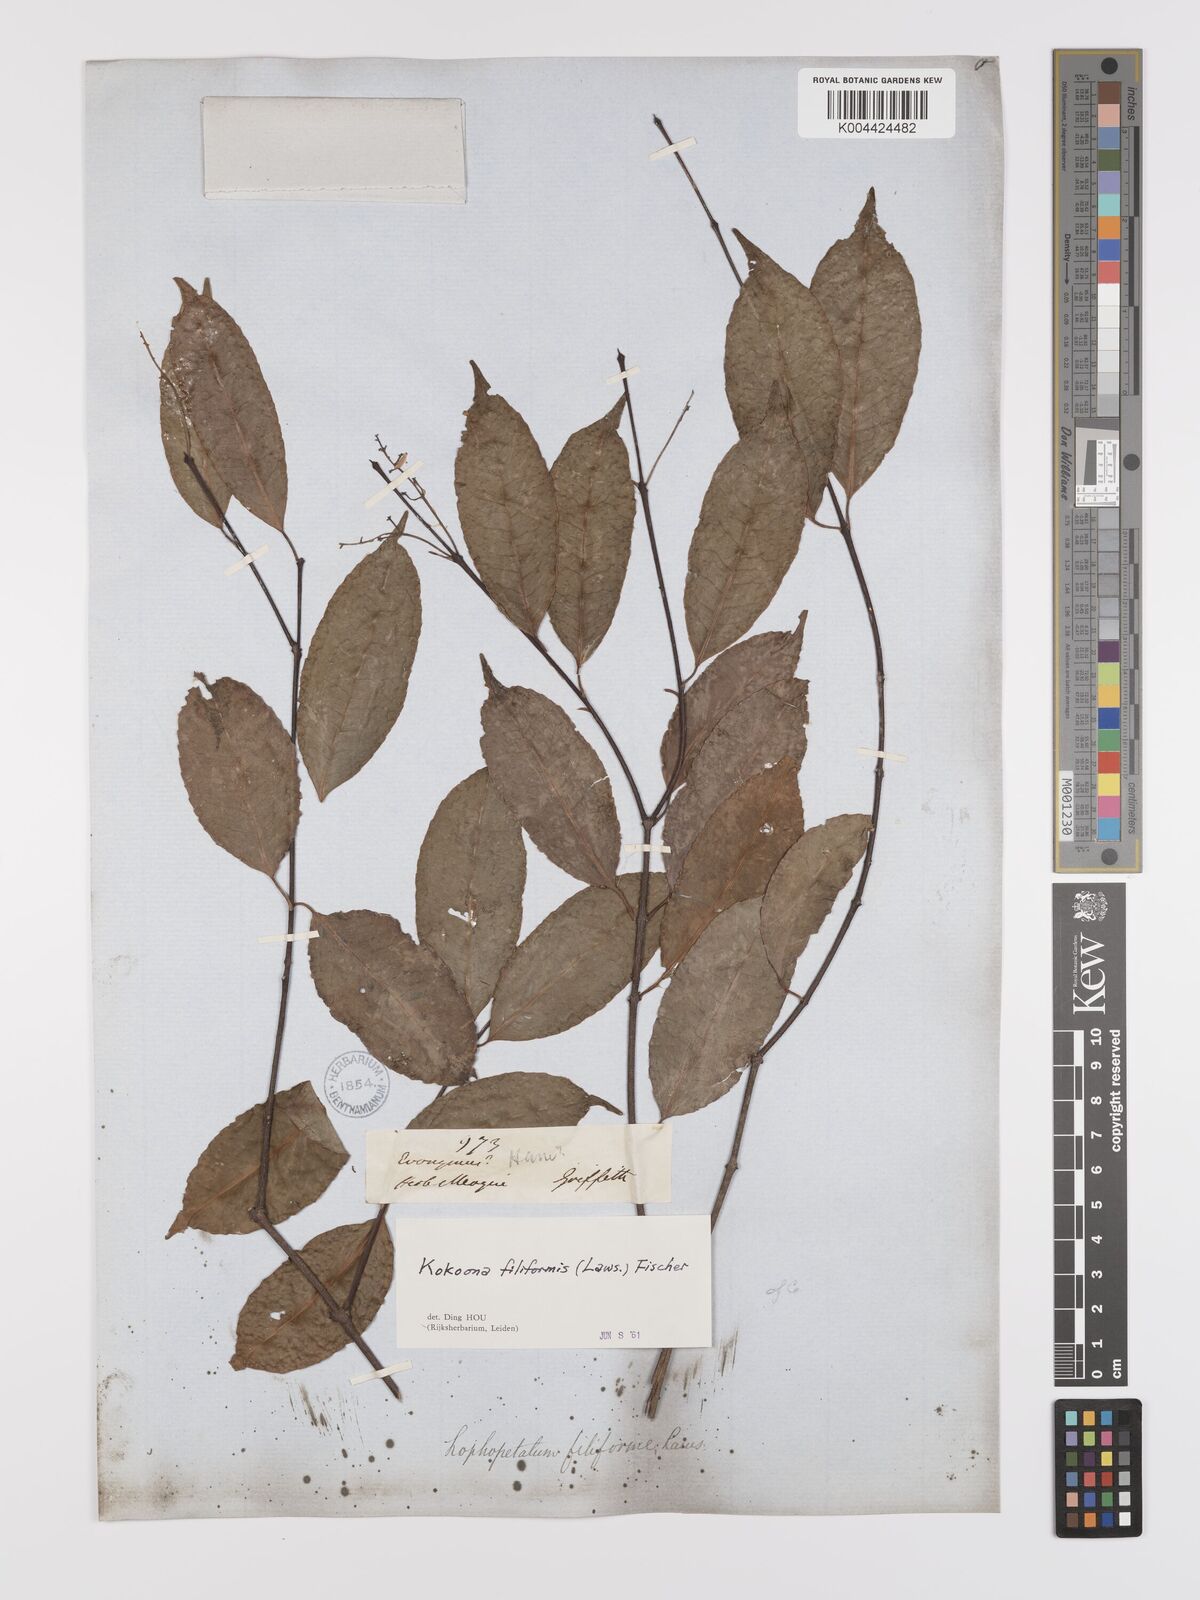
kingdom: Plantae
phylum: Tracheophyta
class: Magnoliopsida
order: Celastrales
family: Celastraceae
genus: Kokoona
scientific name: Kokoona filiformis
